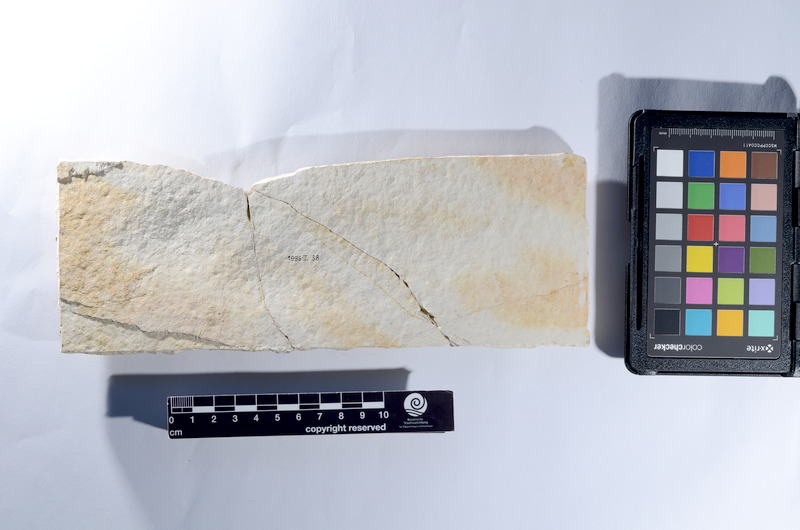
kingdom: Animalia
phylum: Chordata
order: Elopiformes
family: Anaethalionidae
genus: Anaethalion
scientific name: Anaethalion knorri
